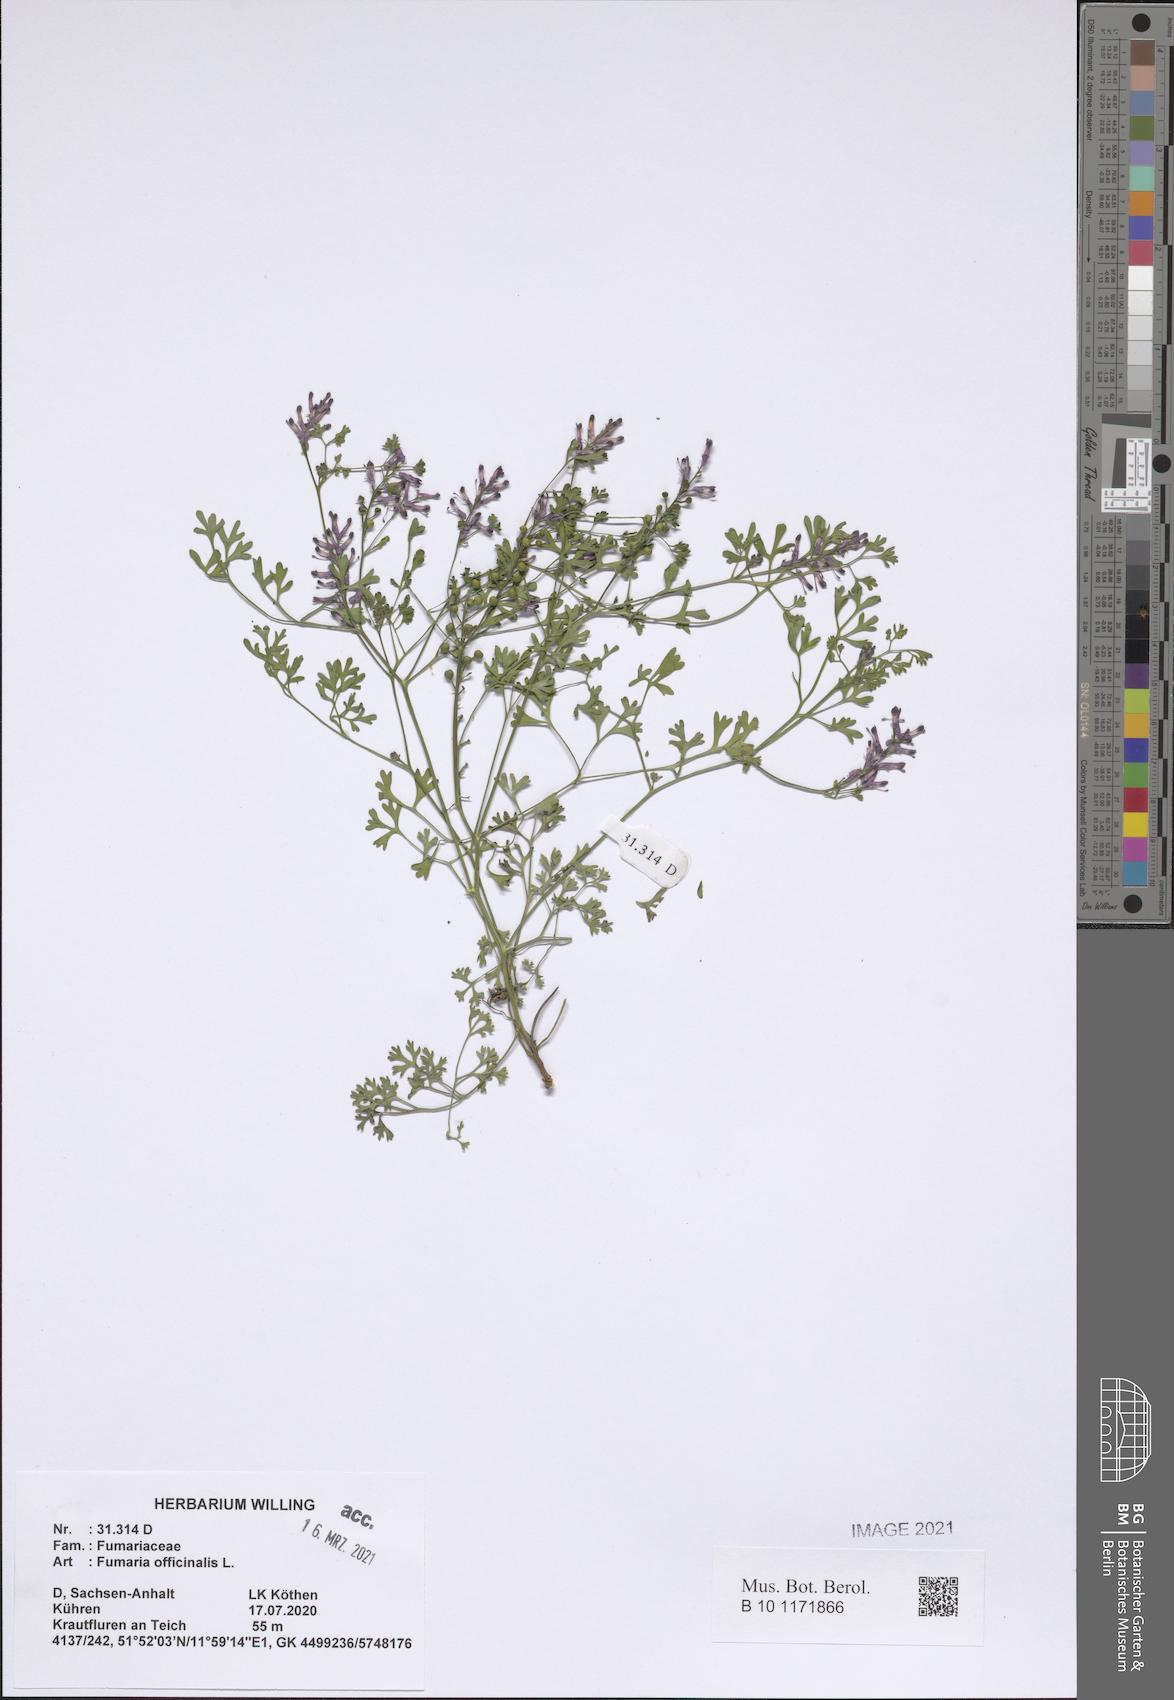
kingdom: Plantae
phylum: Tracheophyta
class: Magnoliopsida
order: Ranunculales
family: Papaveraceae
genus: Fumaria
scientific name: Fumaria officinalis
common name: Common fumitory
